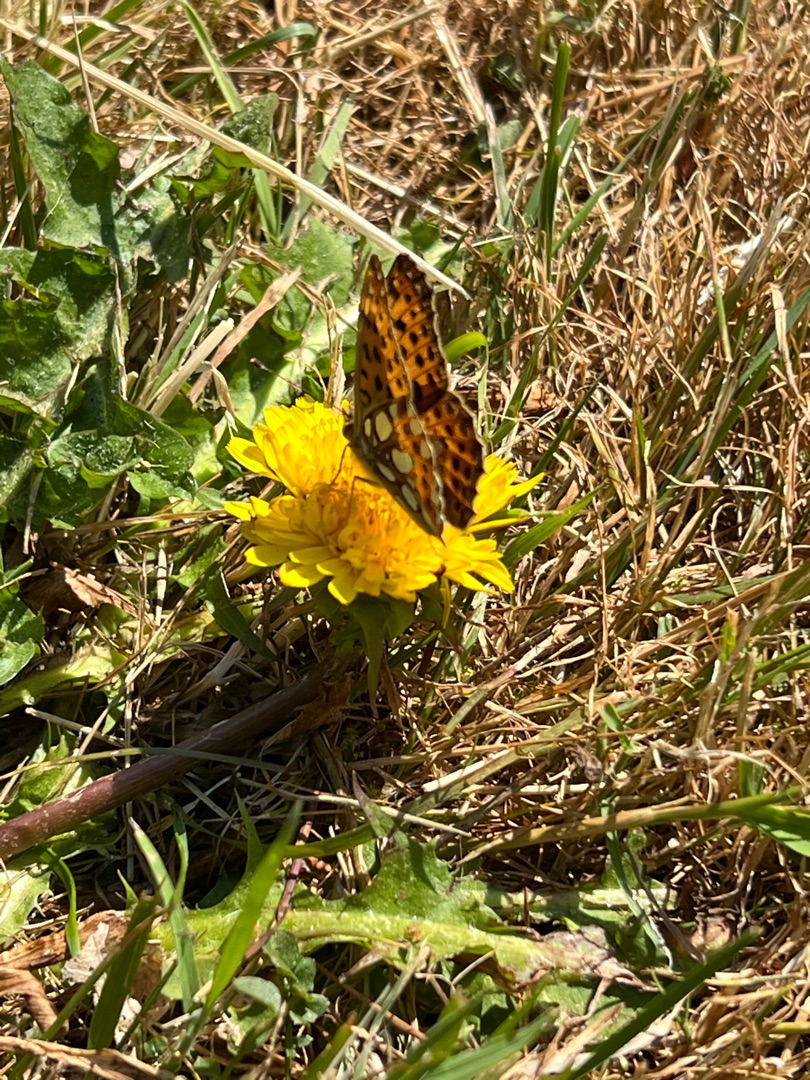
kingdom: Animalia
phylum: Arthropoda
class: Insecta
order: Lepidoptera
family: Nymphalidae
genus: Issoria
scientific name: Issoria lathonia
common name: Storplettet perlemorsommerfugl
